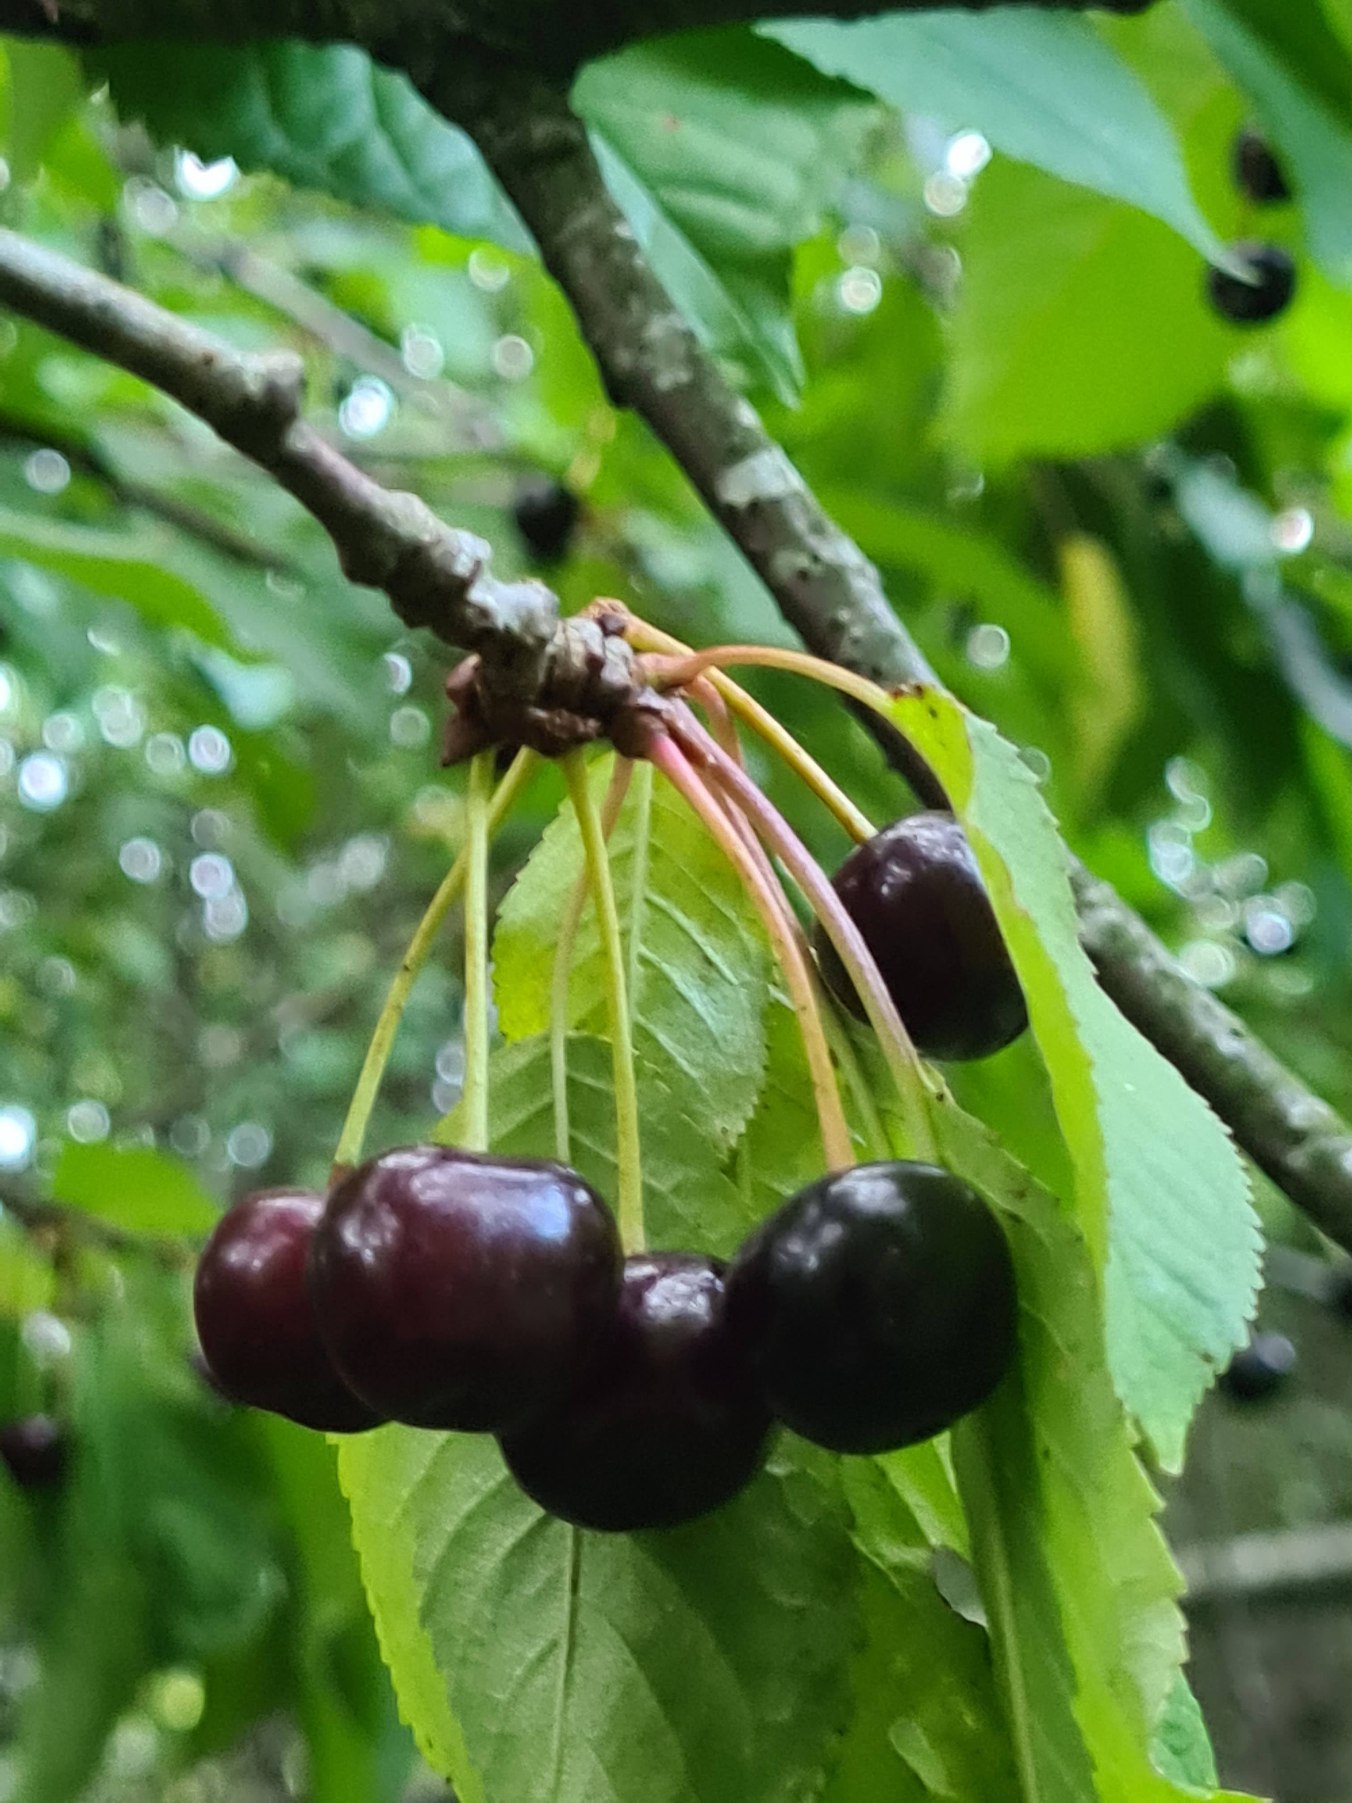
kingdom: Plantae
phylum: Tracheophyta
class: Magnoliopsida
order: Rosales
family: Rosaceae
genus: Prunus
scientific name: Prunus avium
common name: Fugle-kirsebær
